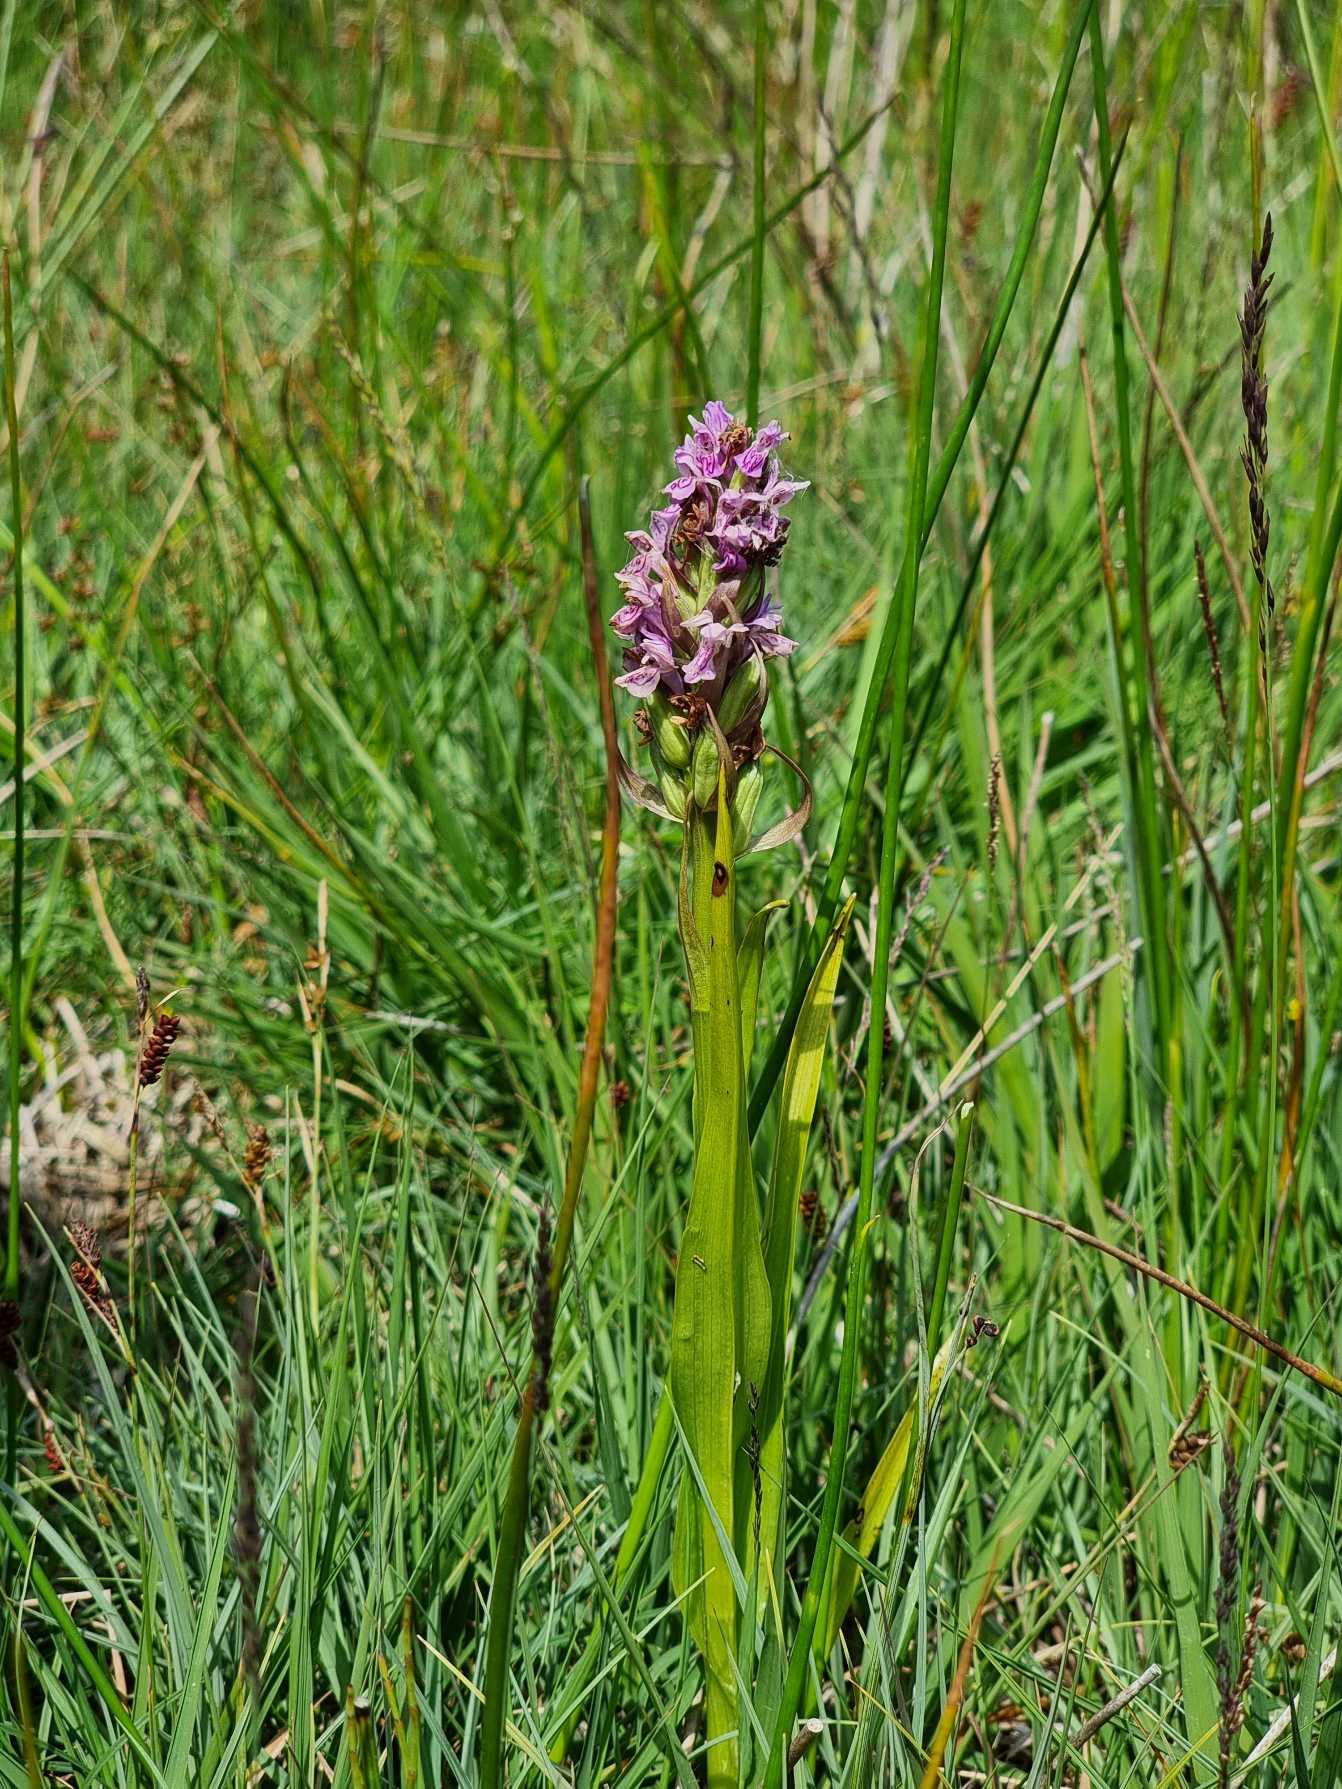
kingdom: Plantae
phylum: Tracheophyta
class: Liliopsida
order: Asparagales
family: Orchidaceae
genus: Dactylorhiza
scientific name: Dactylorhiza incarnata
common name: Kødfarvet gøgeurt
